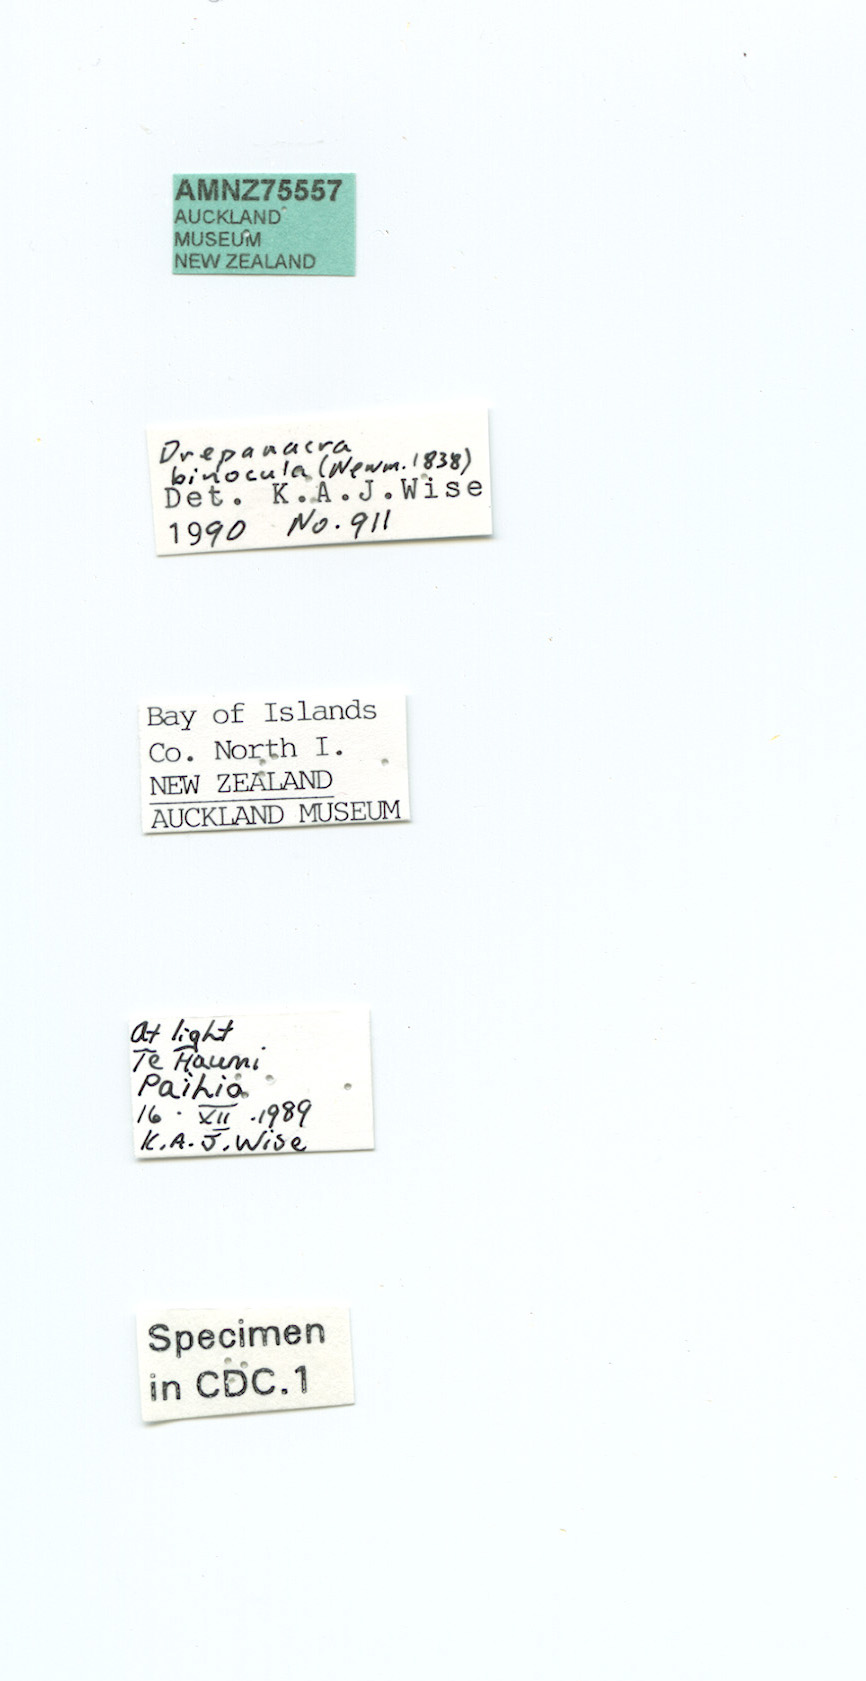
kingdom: Animalia
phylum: Arthropoda
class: Insecta
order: Neuroptera
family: Hemerobiidae
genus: Drepanacra
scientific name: Drepanacra binocula
